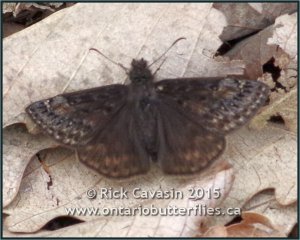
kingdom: Animalia
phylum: Arthropoda
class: Insecta
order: Lepidoptera
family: Hesperiidae
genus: Gesta
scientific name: Gesta
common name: Juvenal's Duskywing
